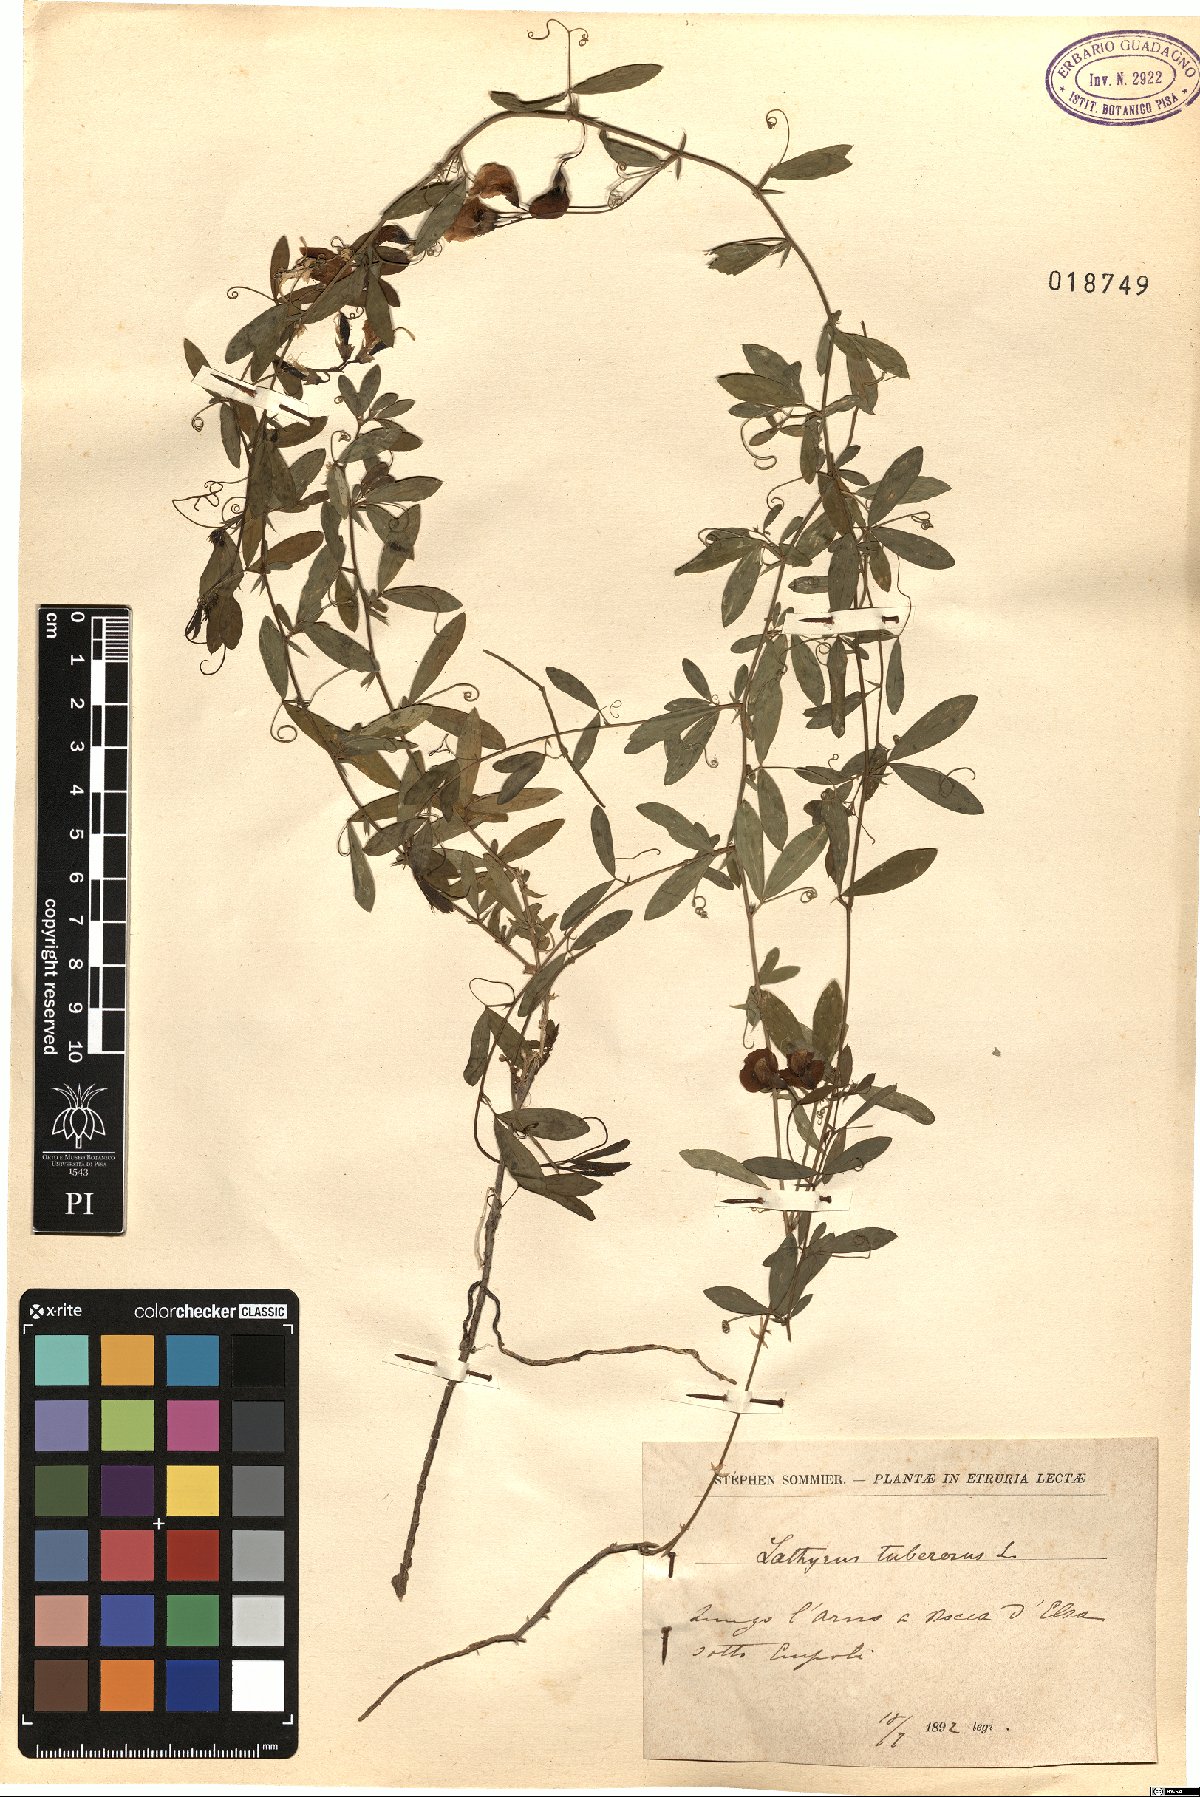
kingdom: Plantae
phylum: Tracheophyta
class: Magnoliopsida
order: Fabales
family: Fabaceae
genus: Lathyrus
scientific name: Lathyrus tuberosus
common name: Tuberous pea
